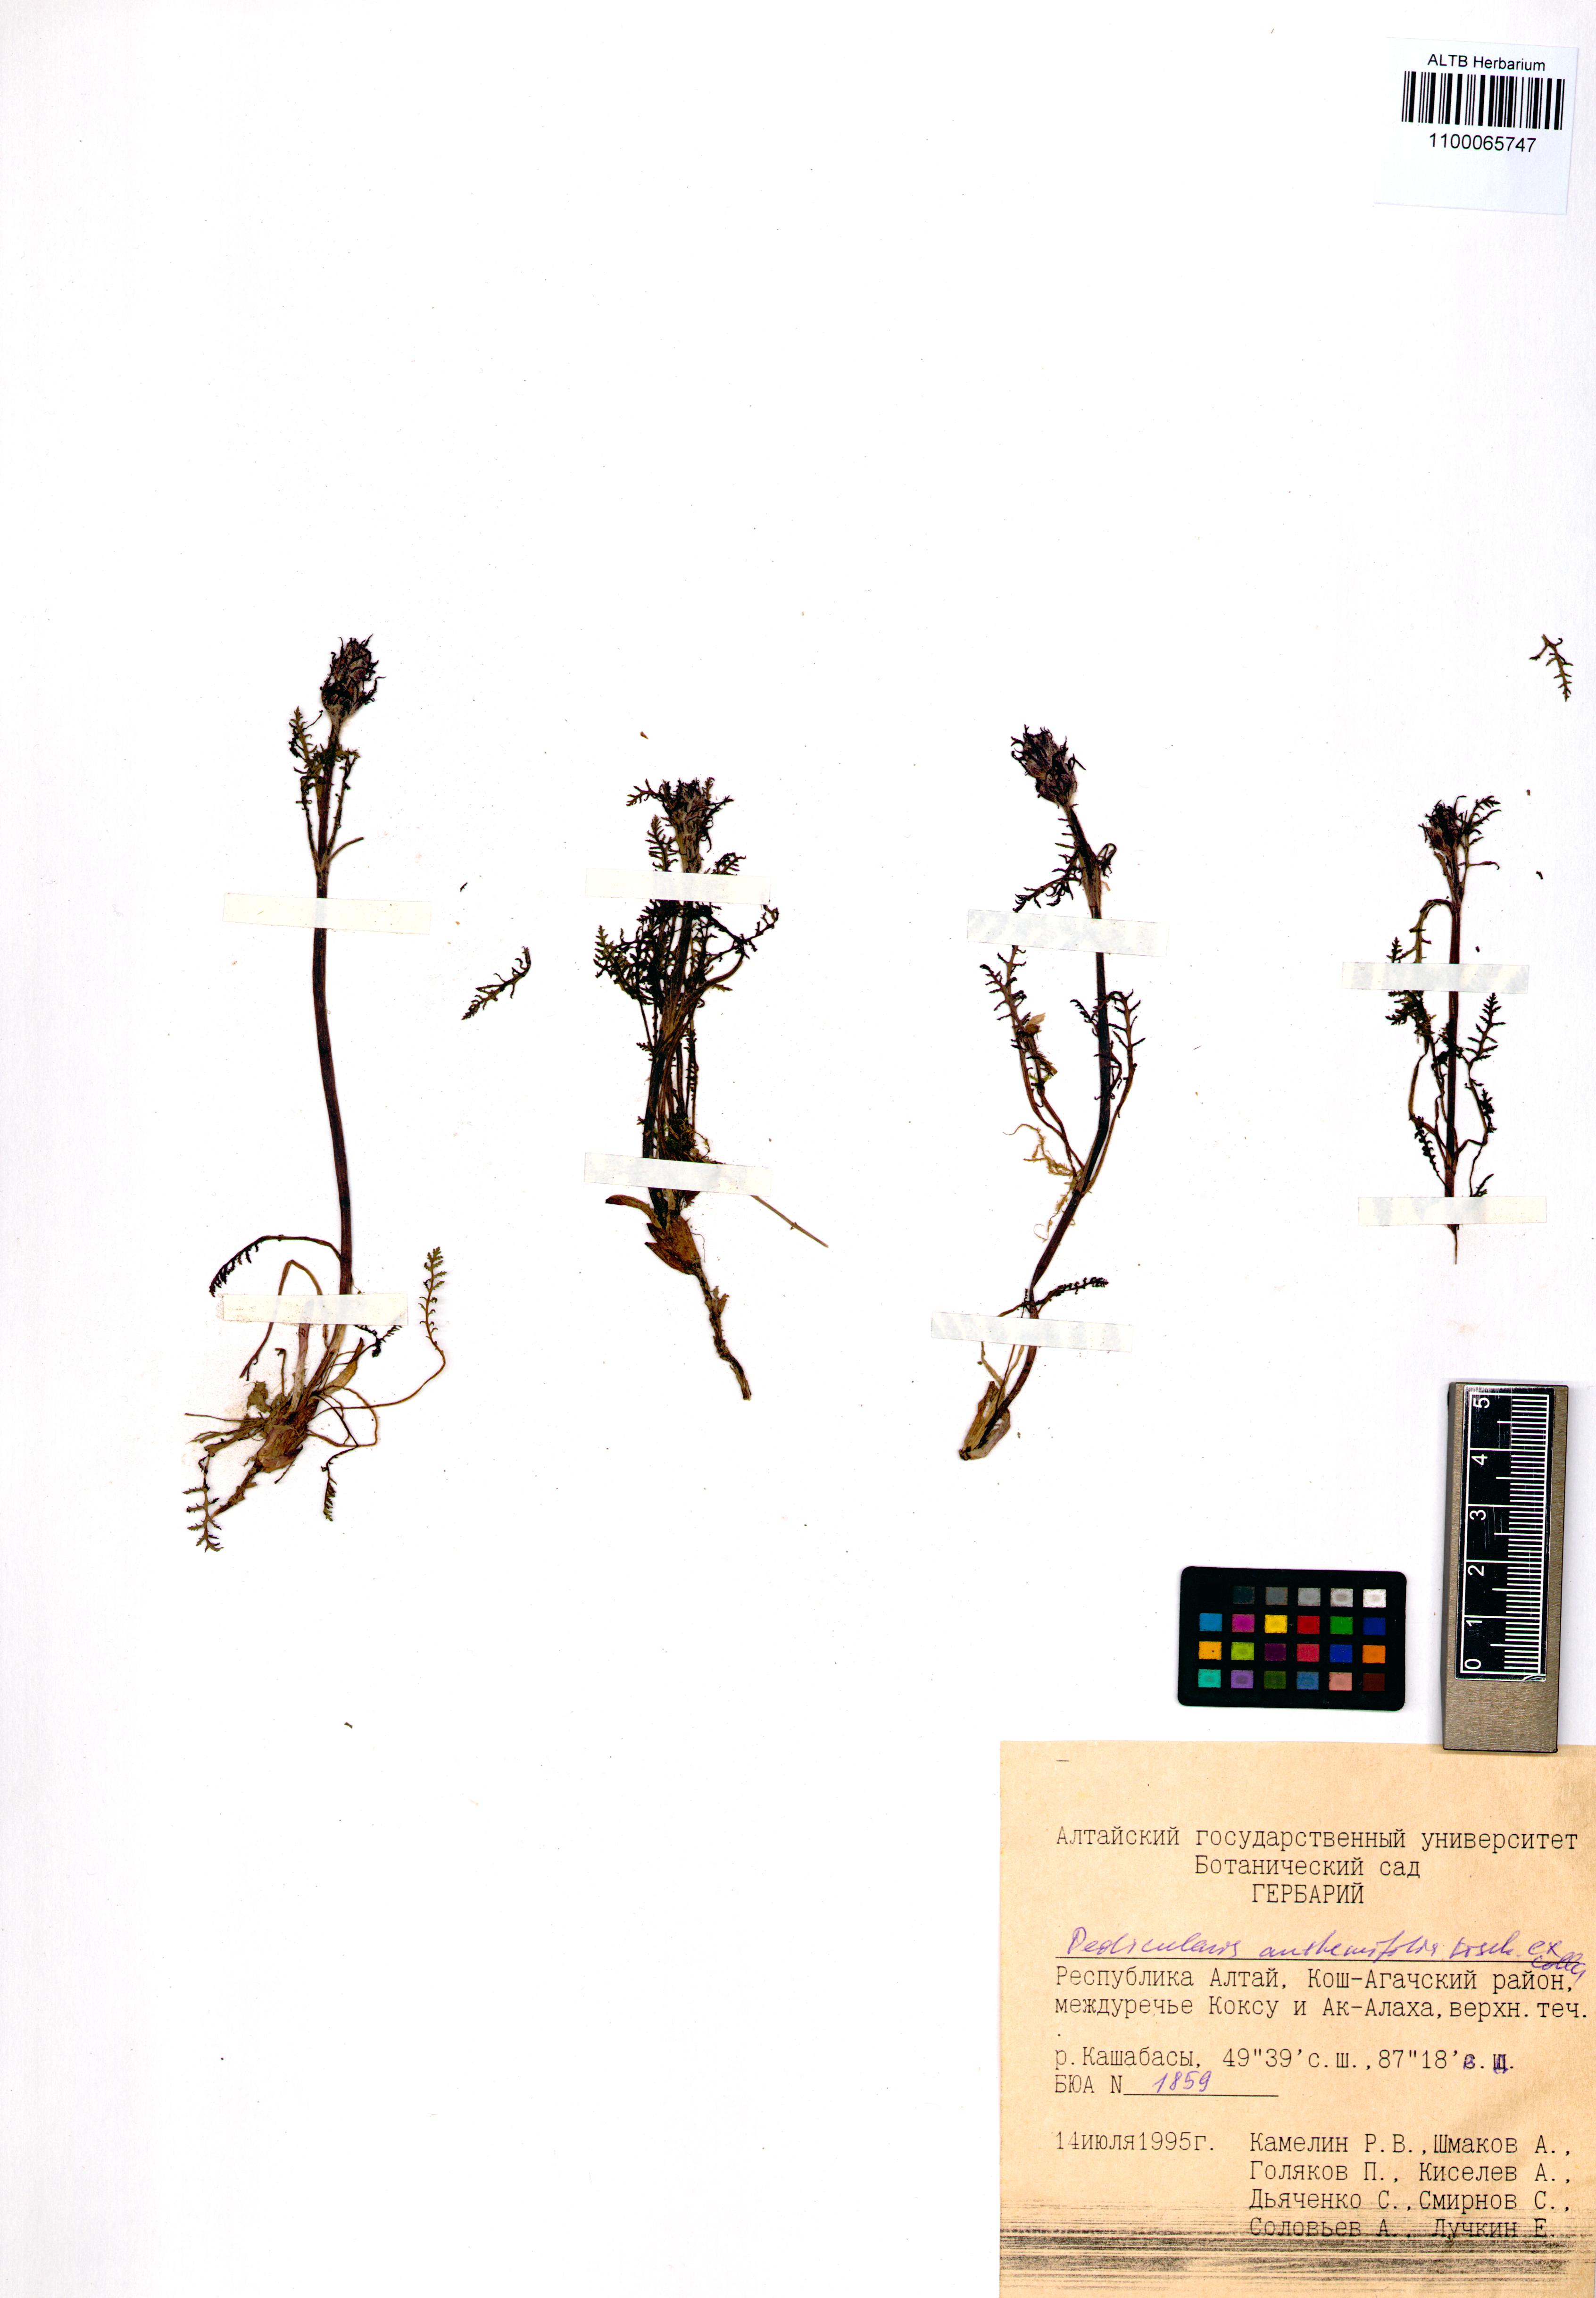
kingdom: Plantae
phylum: Tracheophyta
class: Magnoliopsida
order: Lamiales
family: Orobanchaceae
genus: Pedicularis
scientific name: Pedicularis anthemifolia
